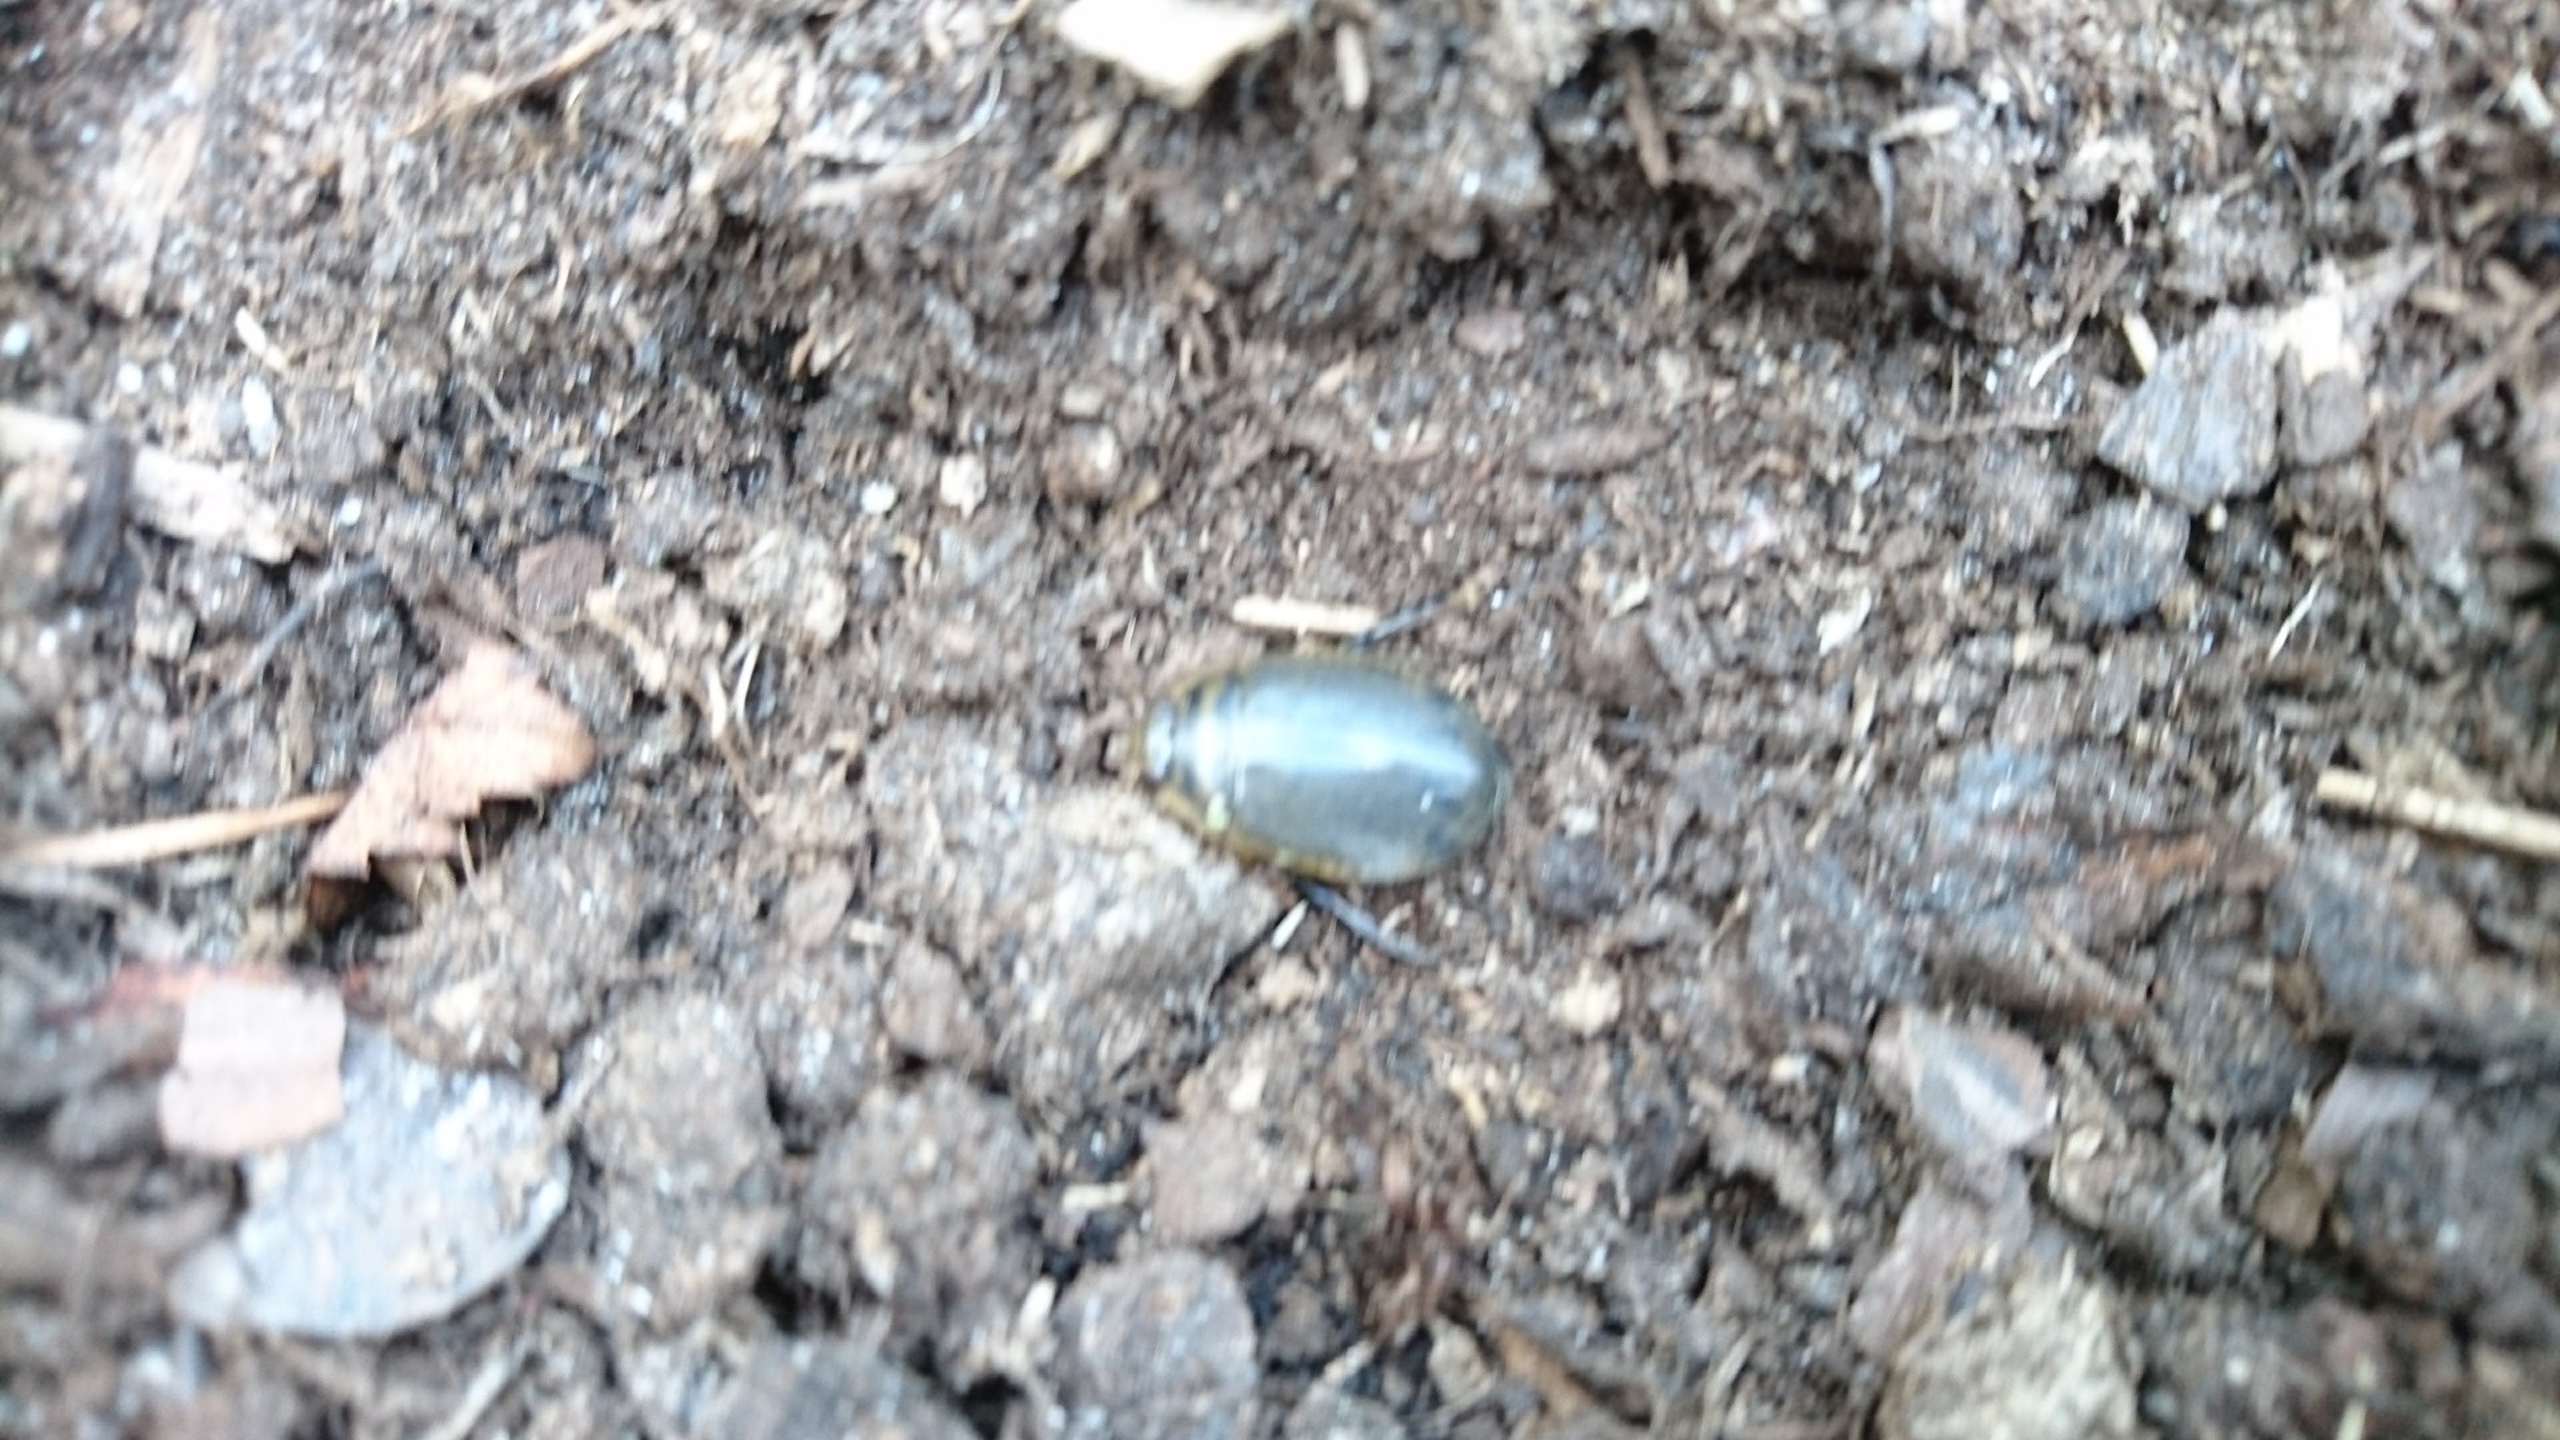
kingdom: Animalia
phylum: Arthropoda
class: Insecta
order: Coleoptera
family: Dytiscidae
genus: Acilius
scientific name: Acilius sulcatus
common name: Stribet skivevandkalv
